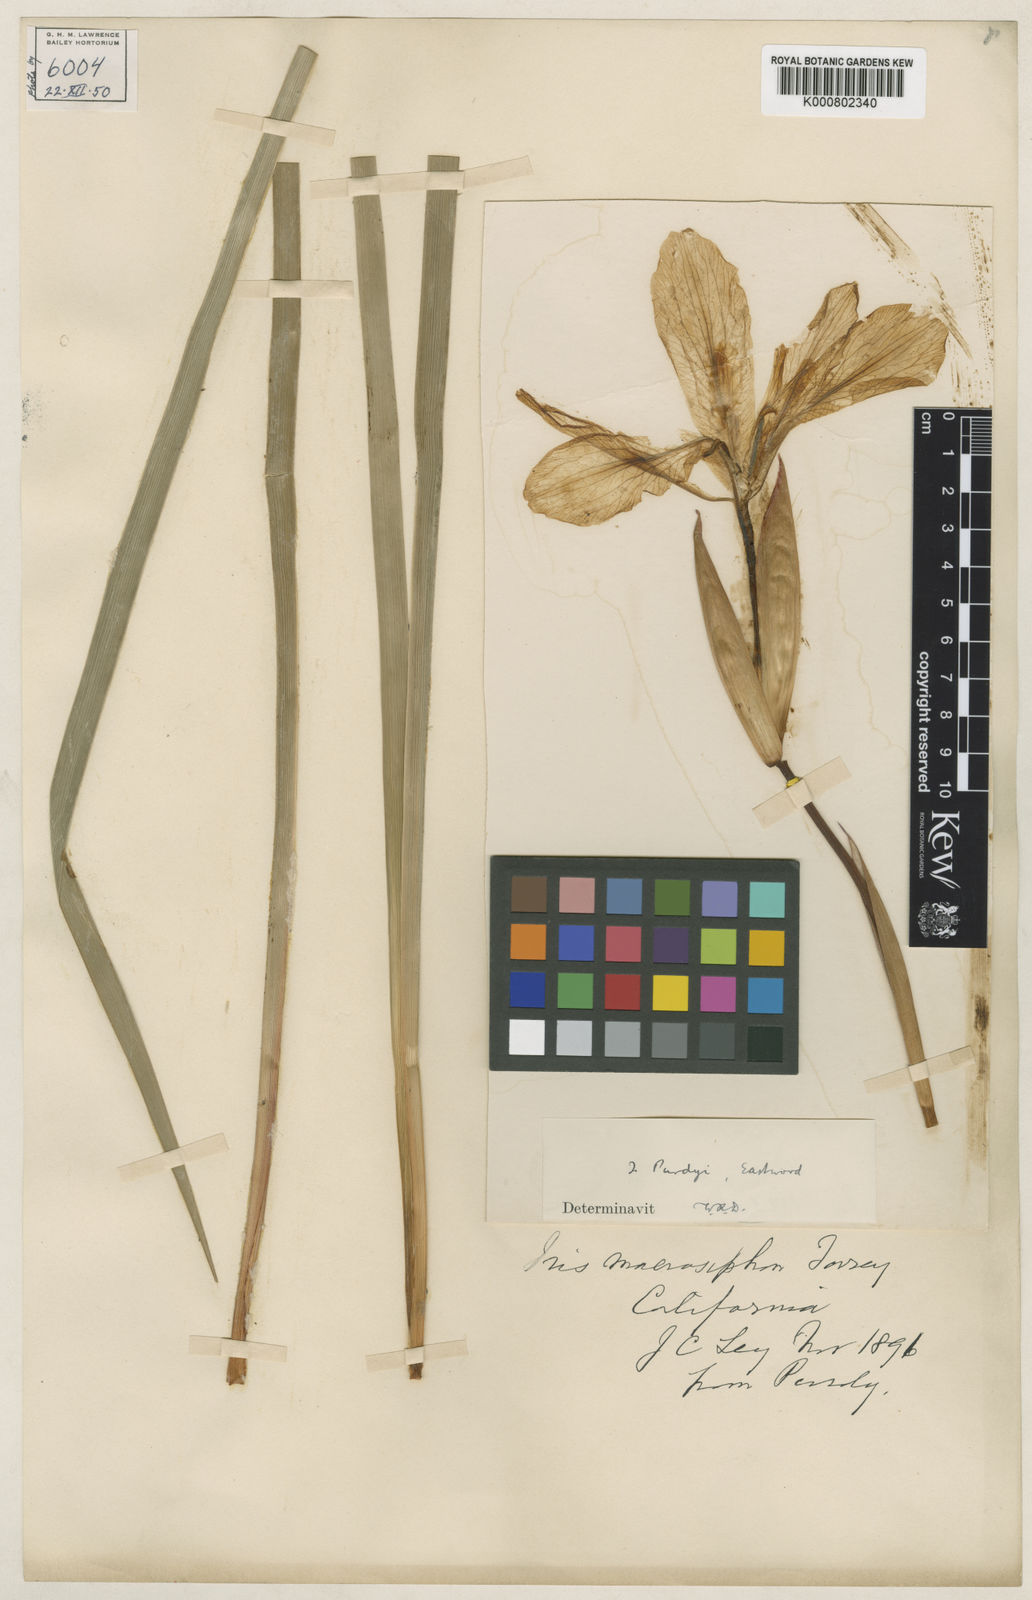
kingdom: Plantae
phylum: Tracheophyta
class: Liliopsida
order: Asparagales
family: Iridaceae
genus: Iris
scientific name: Iris purdyi
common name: Purdy's iris
